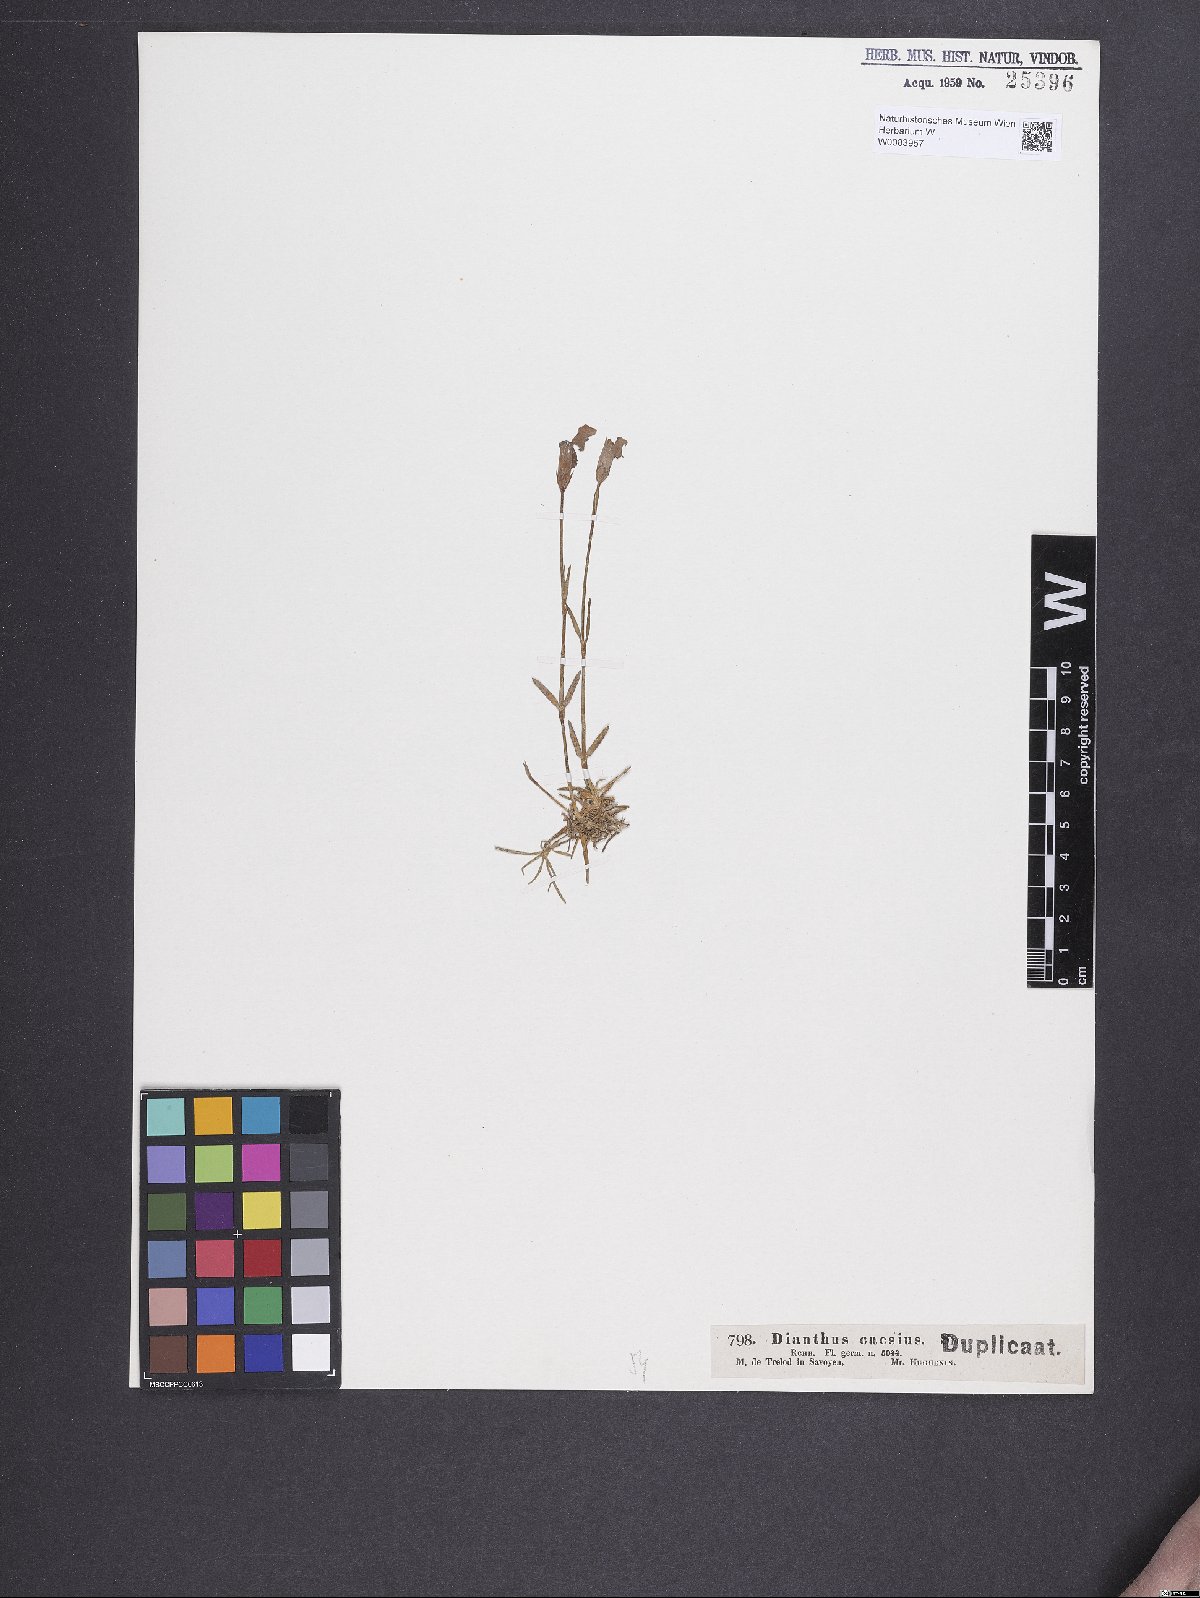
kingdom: Plantae
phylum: Tracheophyta
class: Magnoliopsida
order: Caryophyllales
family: Caryophyllaceae
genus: Dianthus
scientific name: Dianthus gratianopolitanus
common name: Cheddar pink
